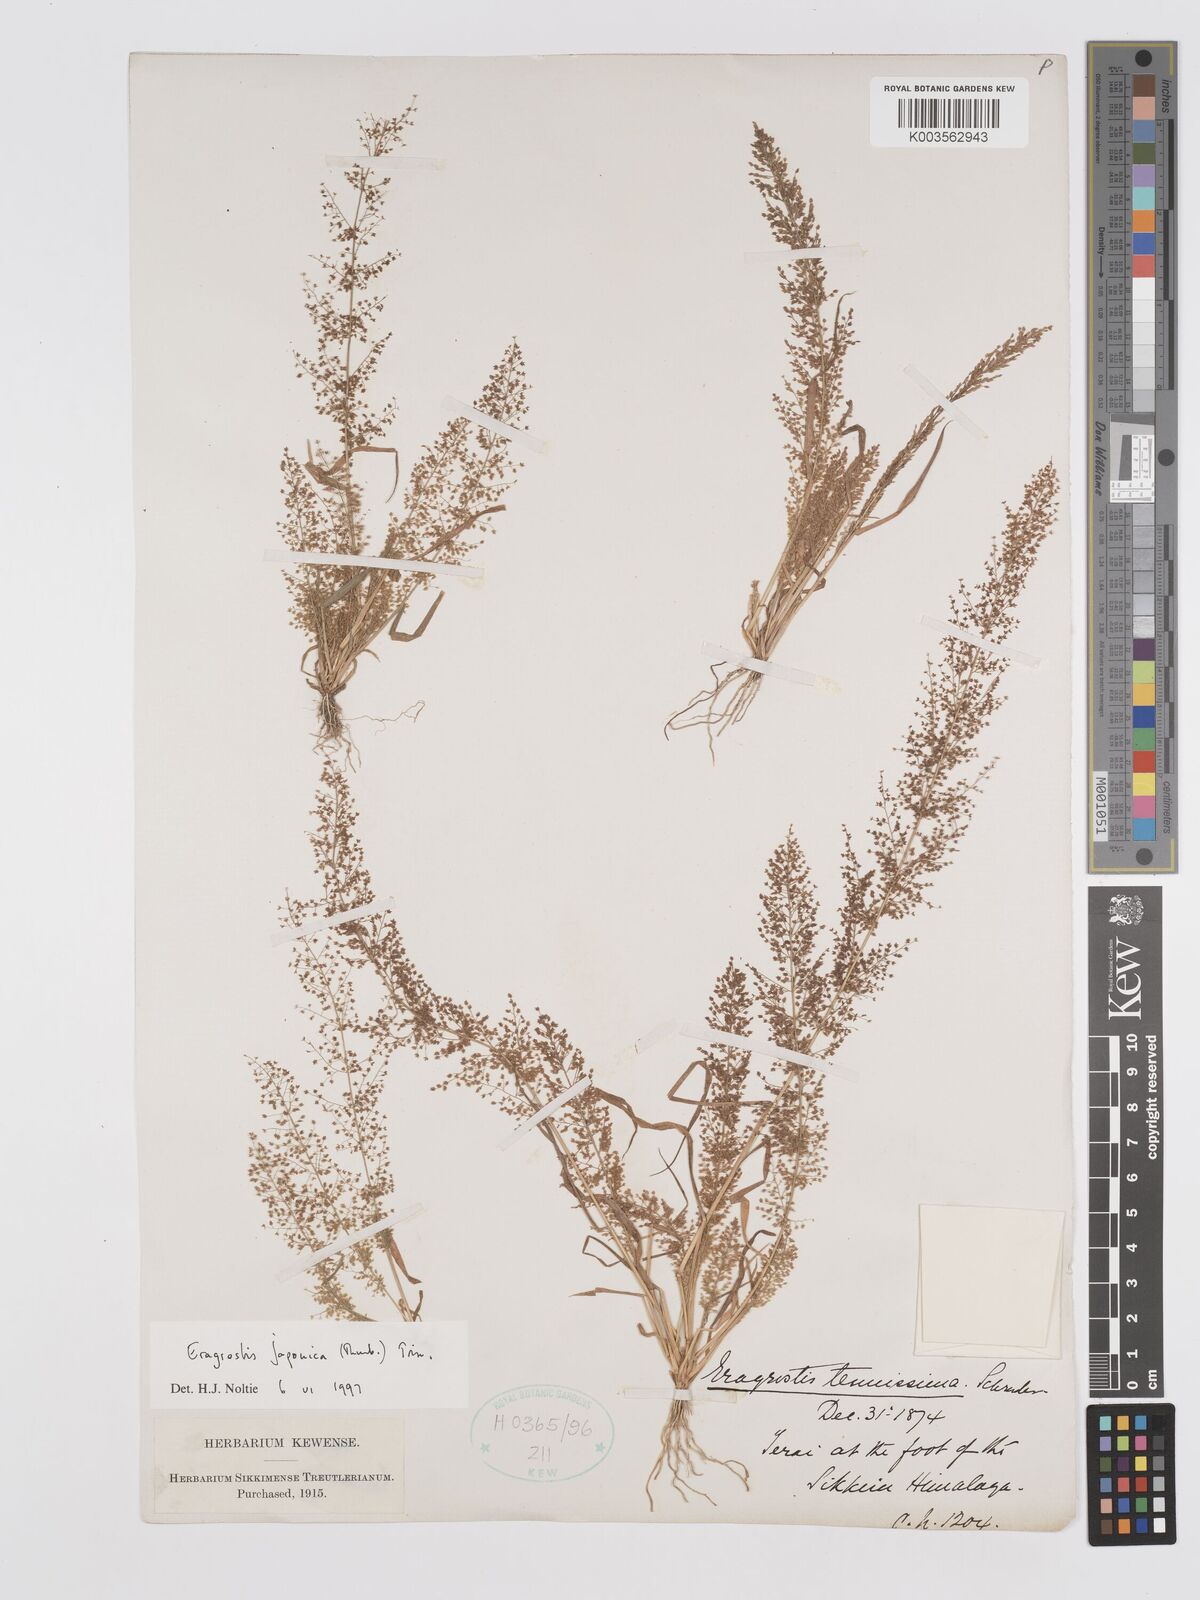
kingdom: Plantae
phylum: Tracheophyta
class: Liliopsida
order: Poales
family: Poaceae
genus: Eragrostis
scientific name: Eragrostis japonica
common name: Pond lovegrass
